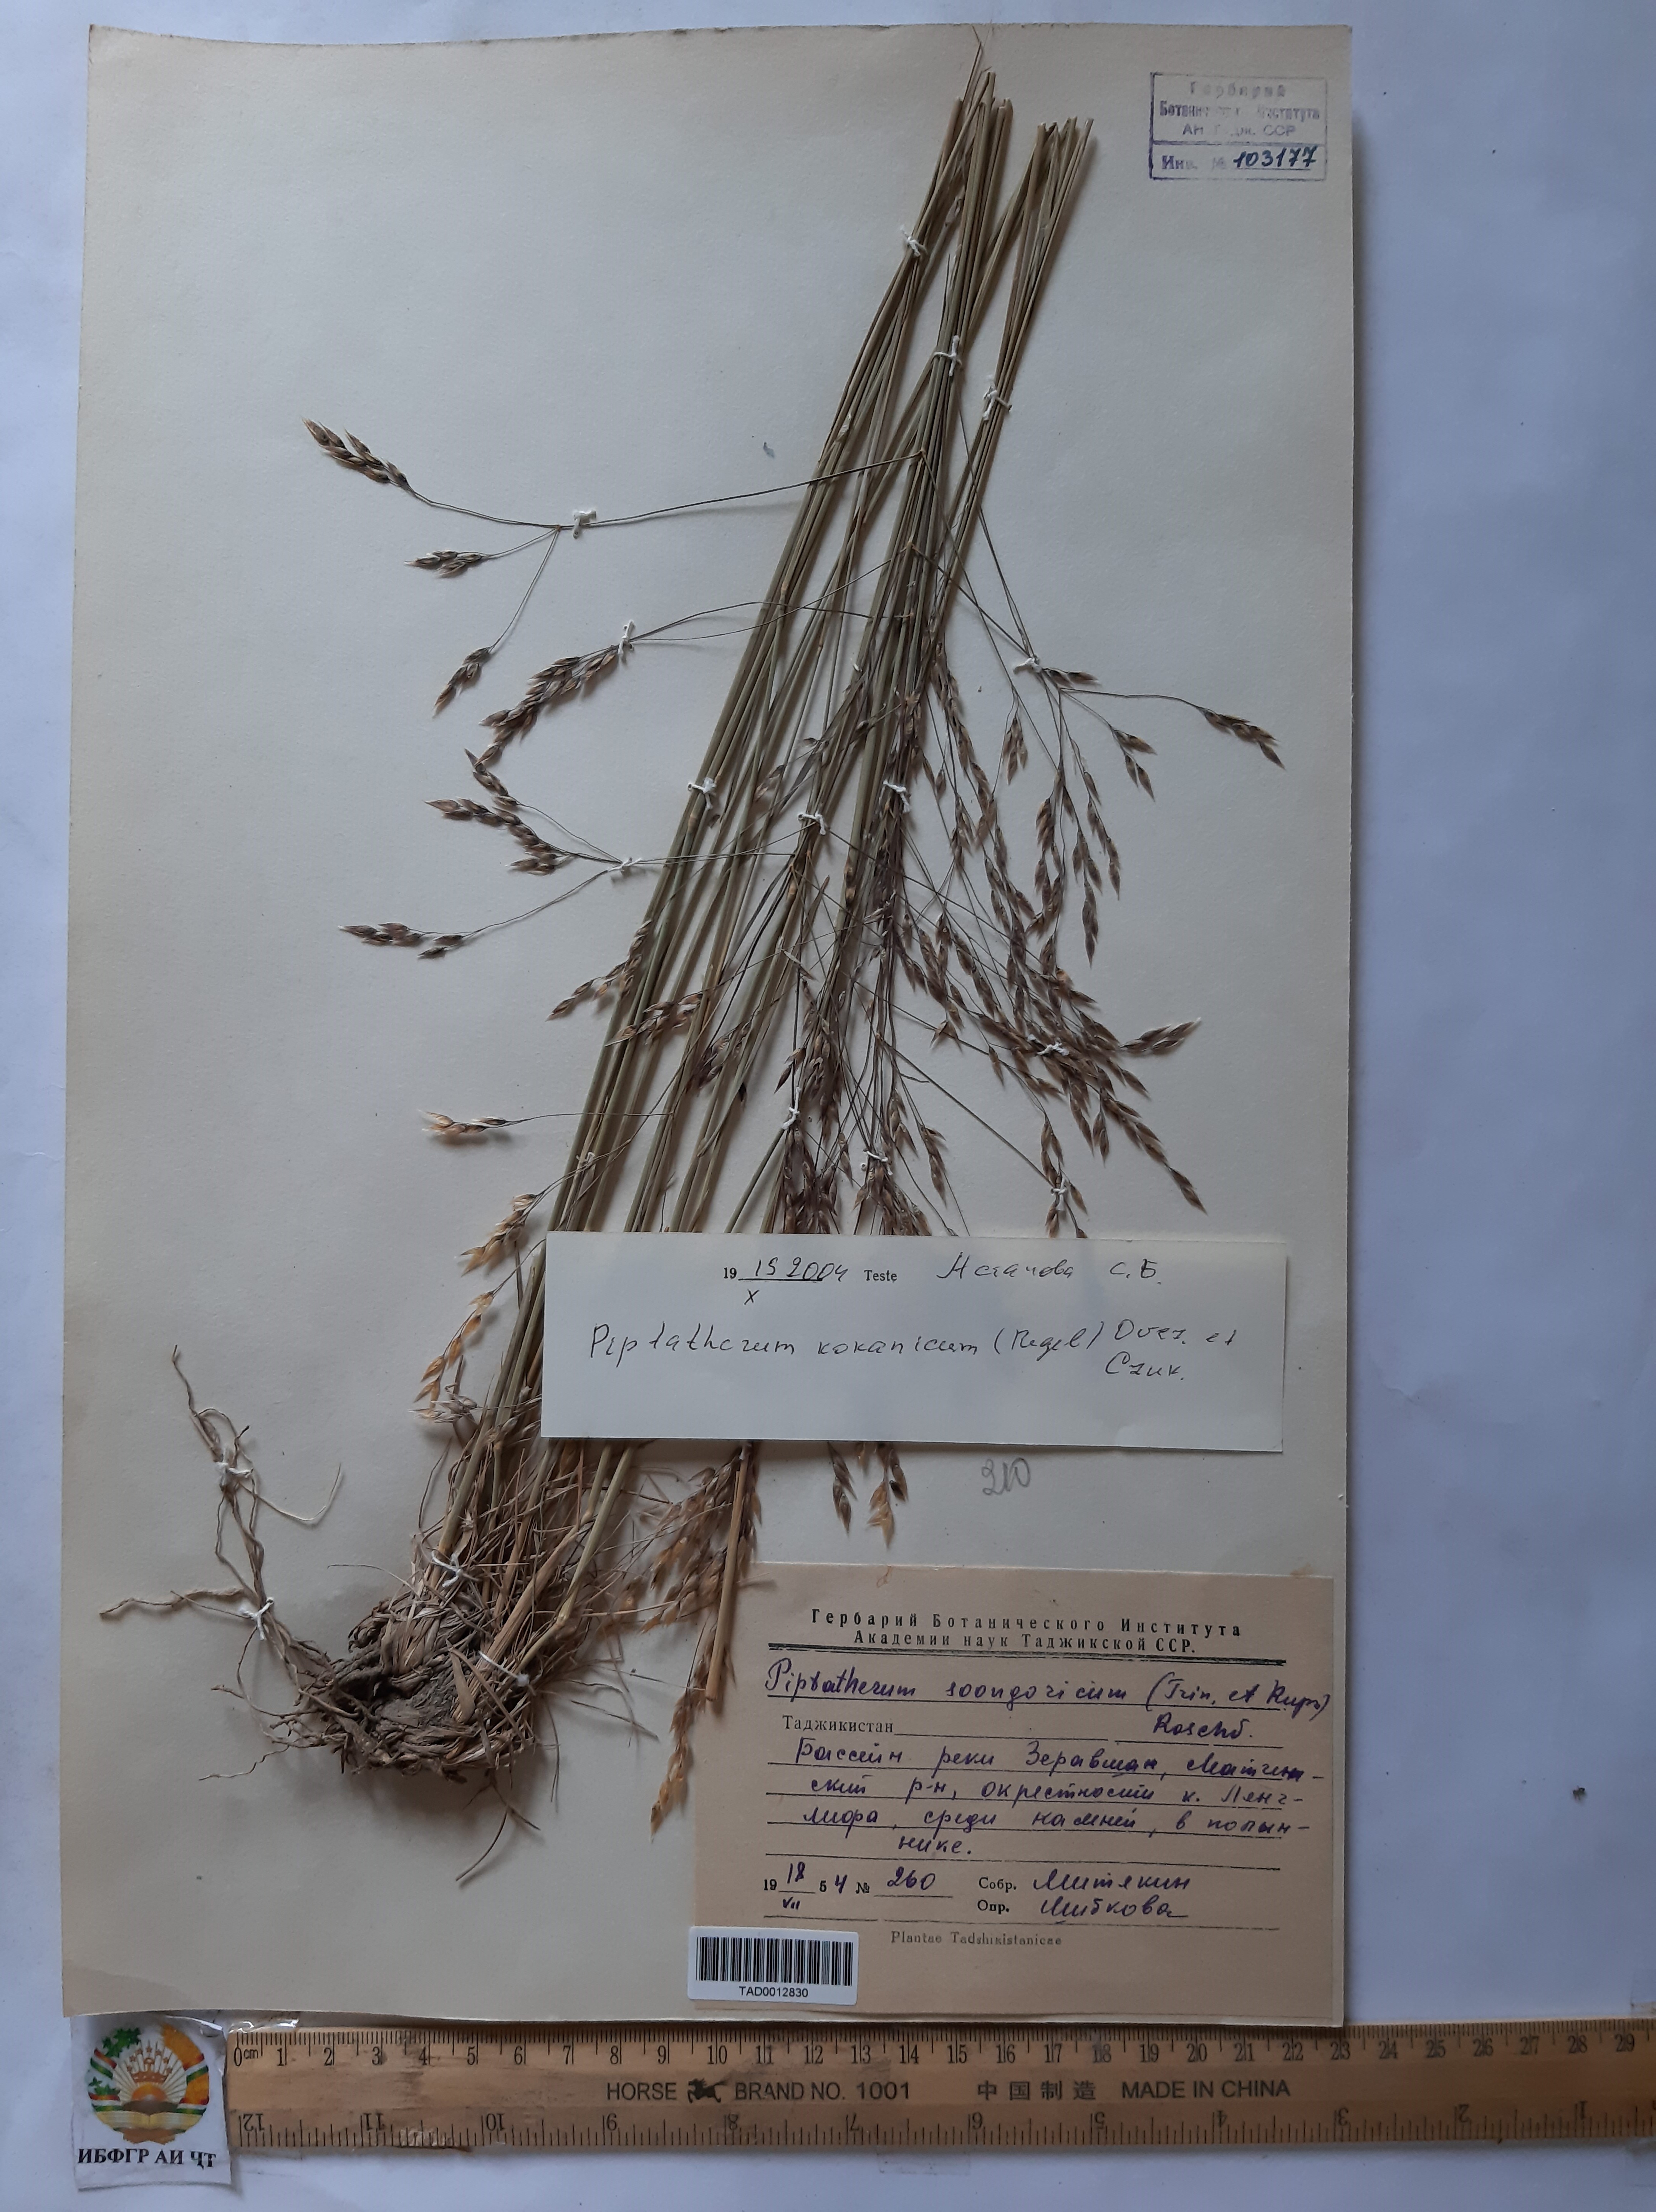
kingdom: Plantae
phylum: Tracheophyta
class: Liliopsida
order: Poales
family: Poaceae
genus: Piptatherum
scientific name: Piptatherum songaricum
